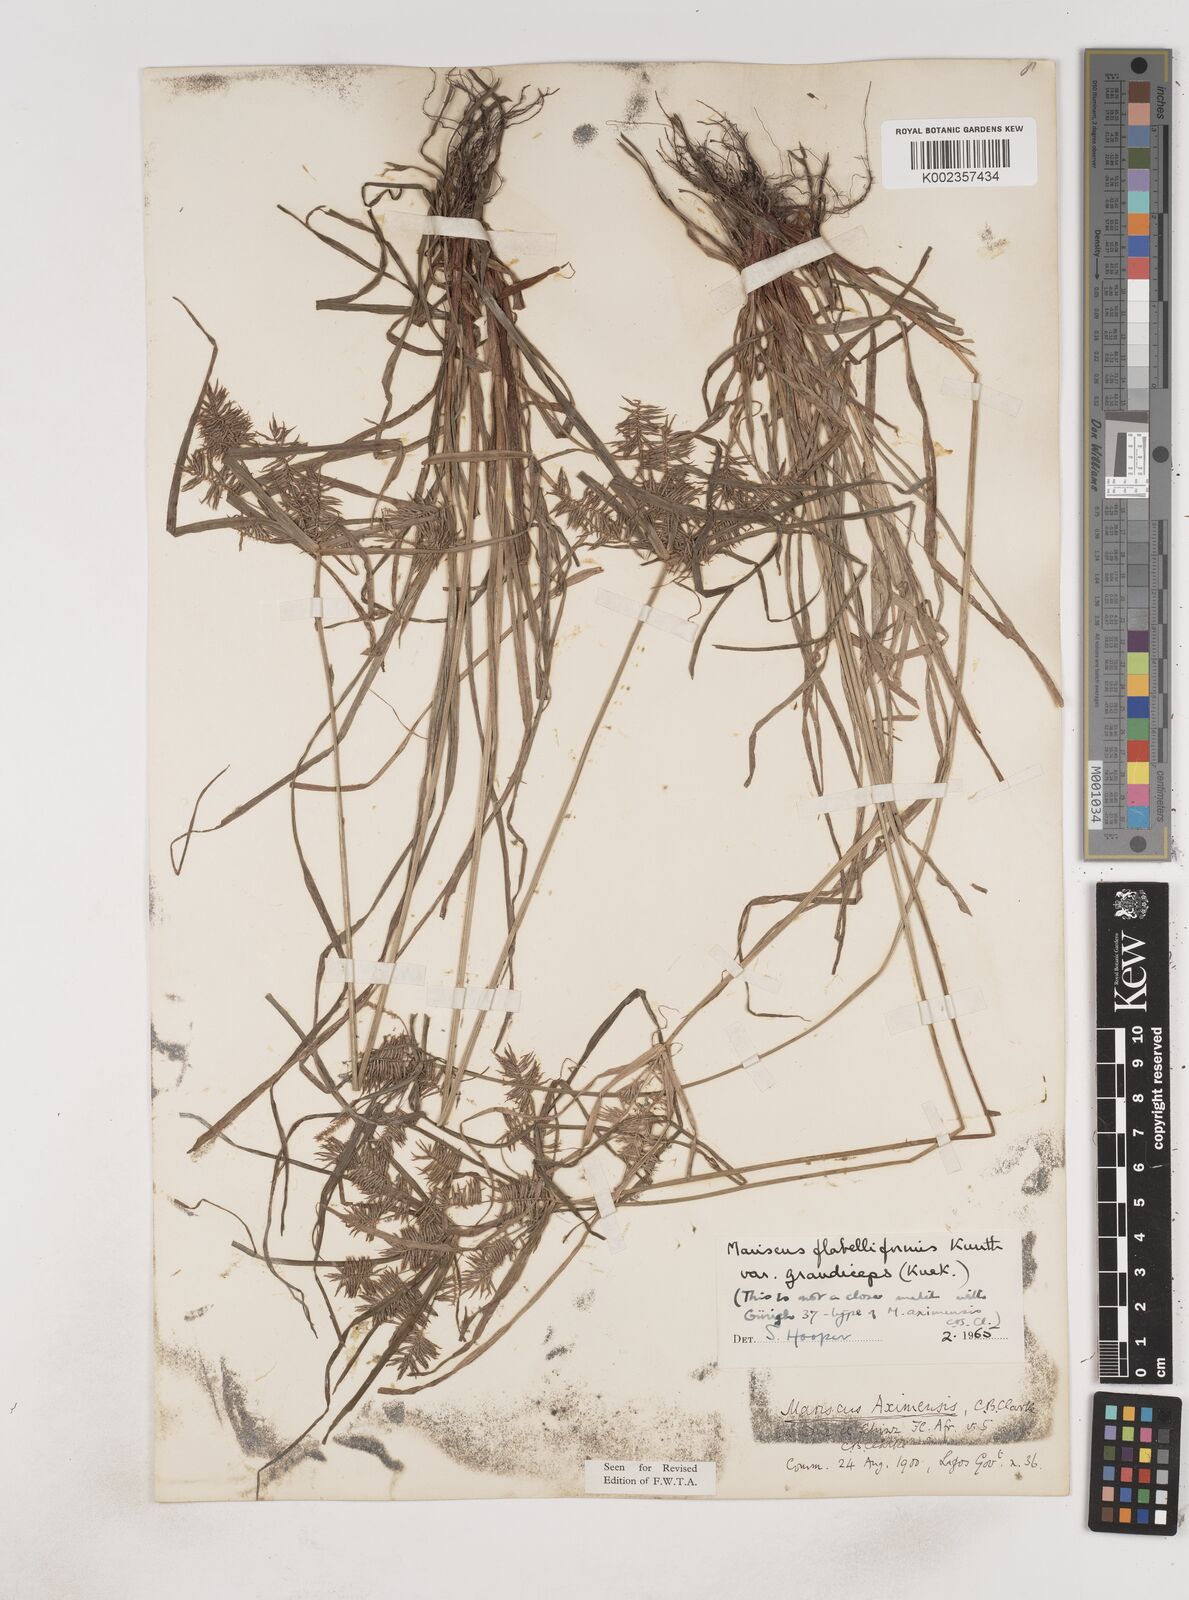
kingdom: Plantae
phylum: Tracheophyta
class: Liliopsida
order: Poales
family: Cyperaceae
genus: Cyperus
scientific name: Cyperus tenuis
